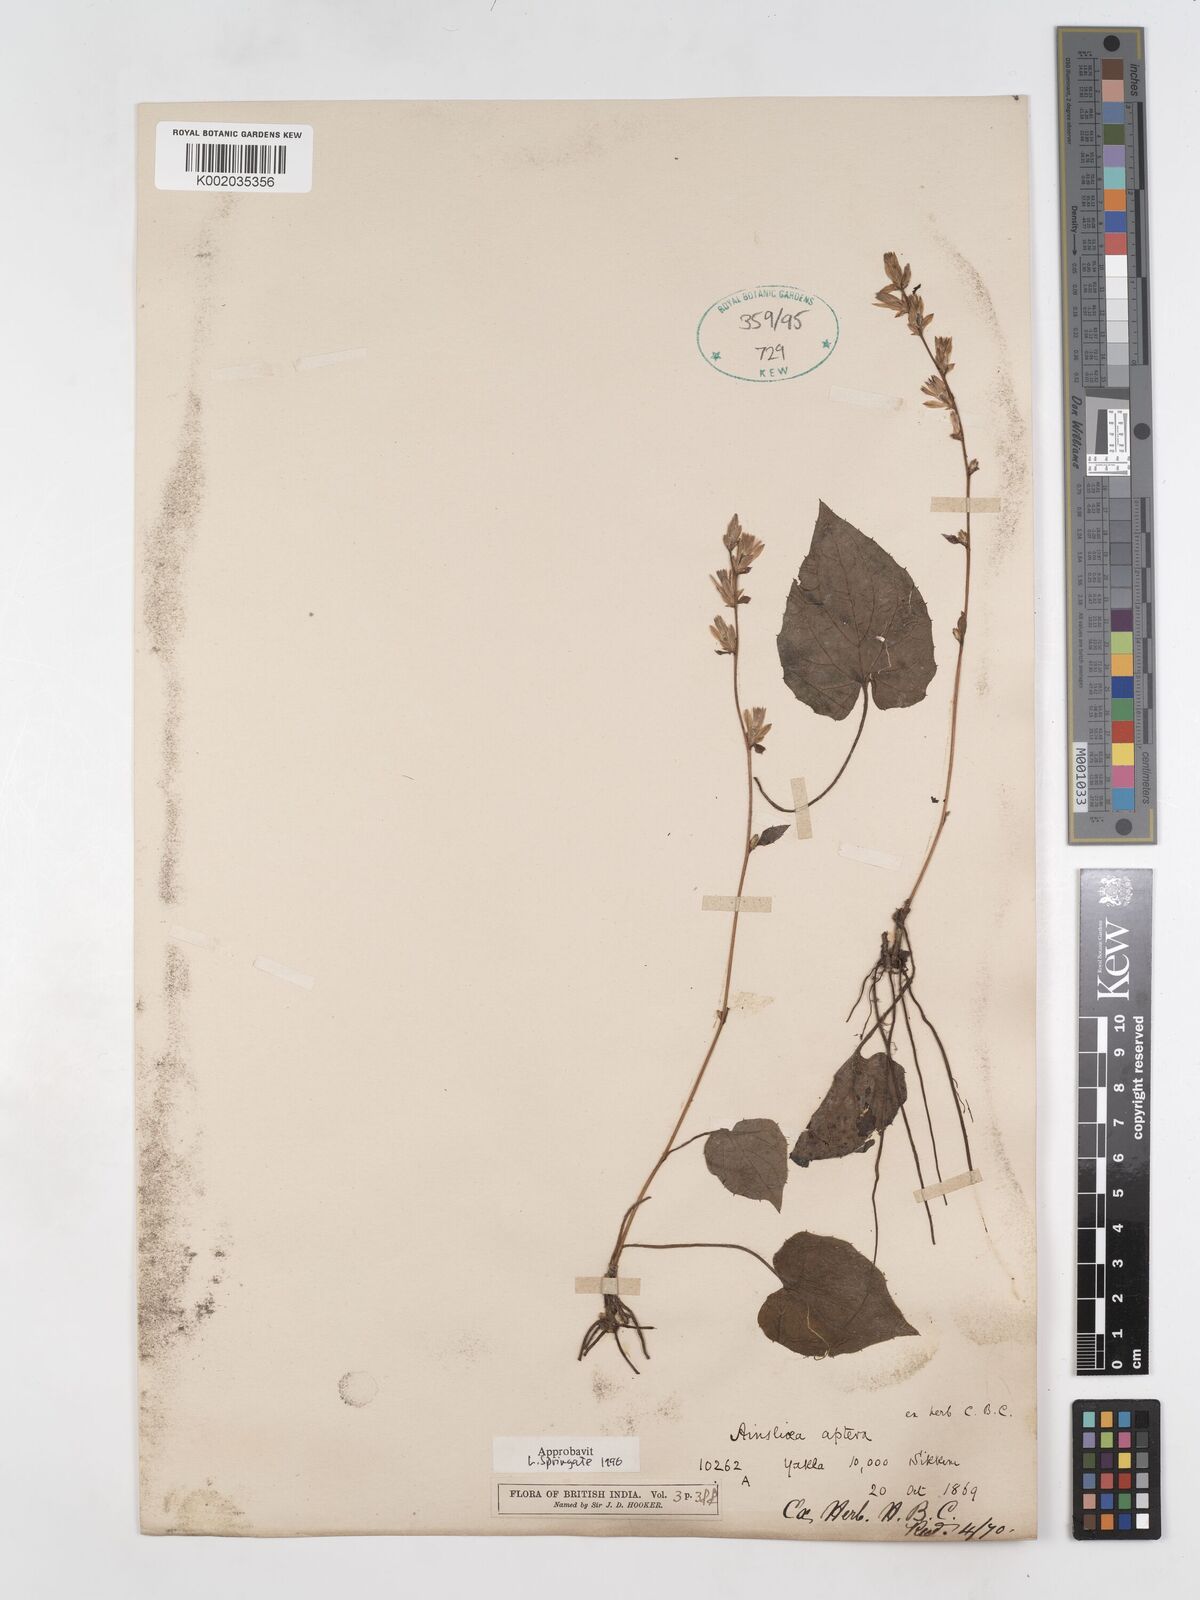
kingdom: Plantae
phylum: Tracheophyta
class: Magnoliopsida
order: Asterales
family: Asteraceae
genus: Ainsliaea
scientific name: Ainsliaea aptera
